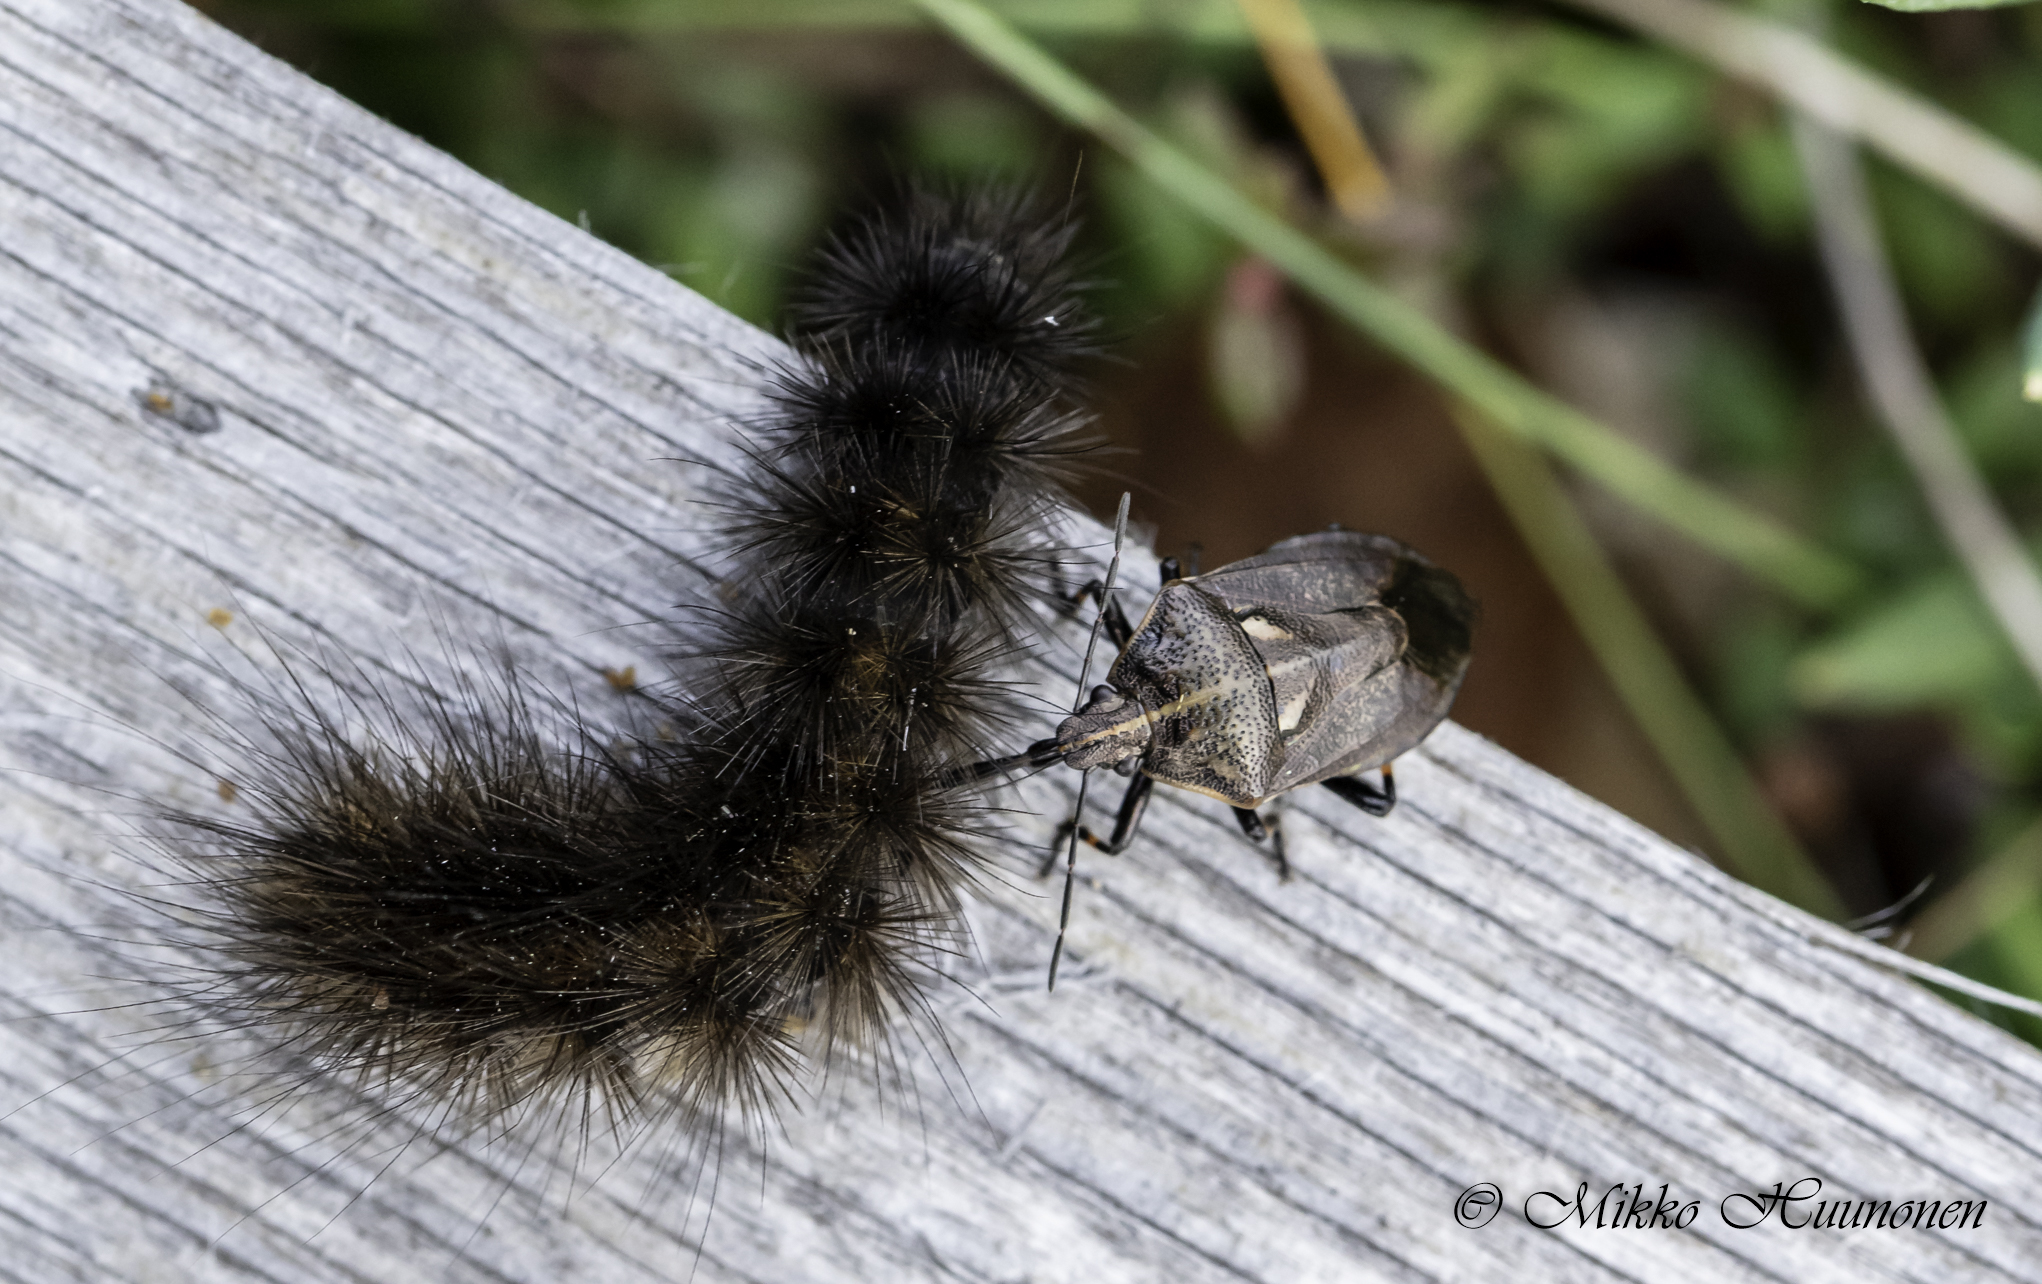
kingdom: Animalia
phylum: Arthropoda
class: Insecta
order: Hemiptera
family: Pentatomidae
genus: Jalla
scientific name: Jalla dumosa
